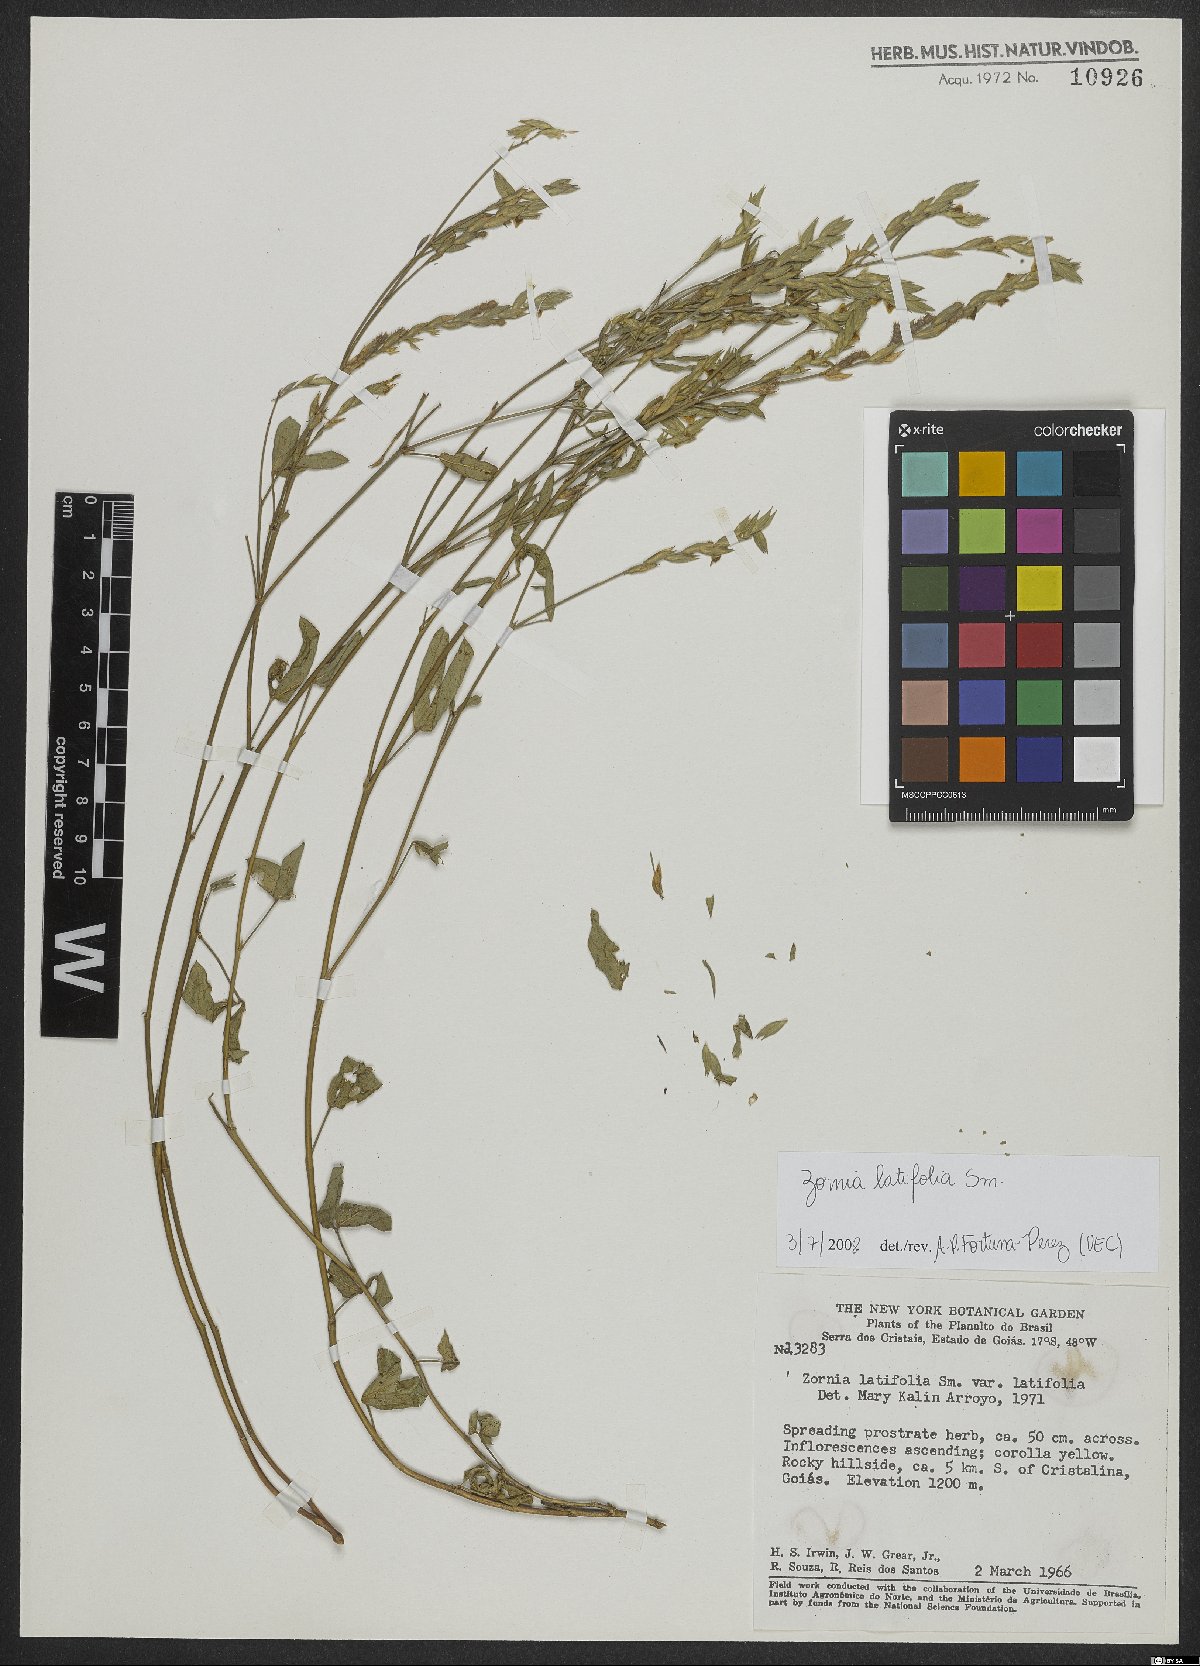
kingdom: Plantae
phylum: Tracheophyta
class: Magnoliopsida
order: Fabales
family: Fabaceae
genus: Zornia
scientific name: Zornia sericea
